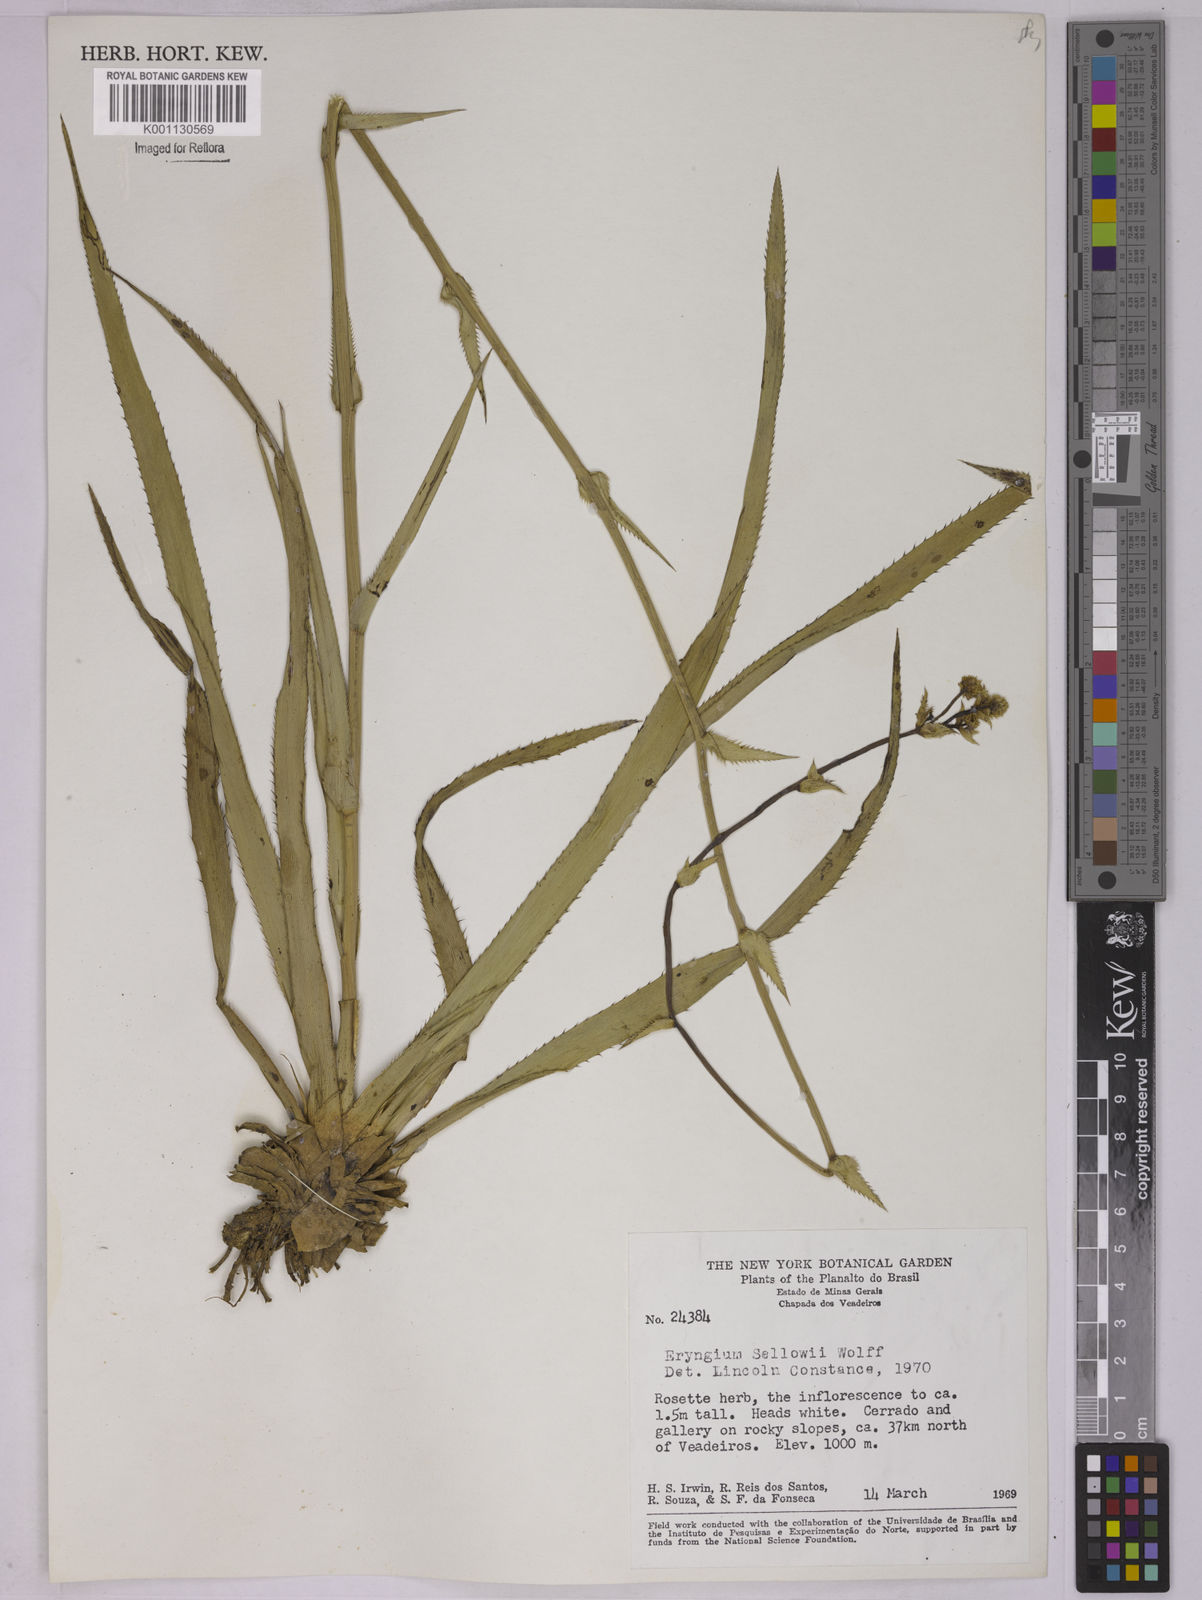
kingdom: Plantae
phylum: Tracheophyta
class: Magnoliopsida
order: Apiales
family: Apiaceae
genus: Eryngium
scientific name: Eryngium sellowii
